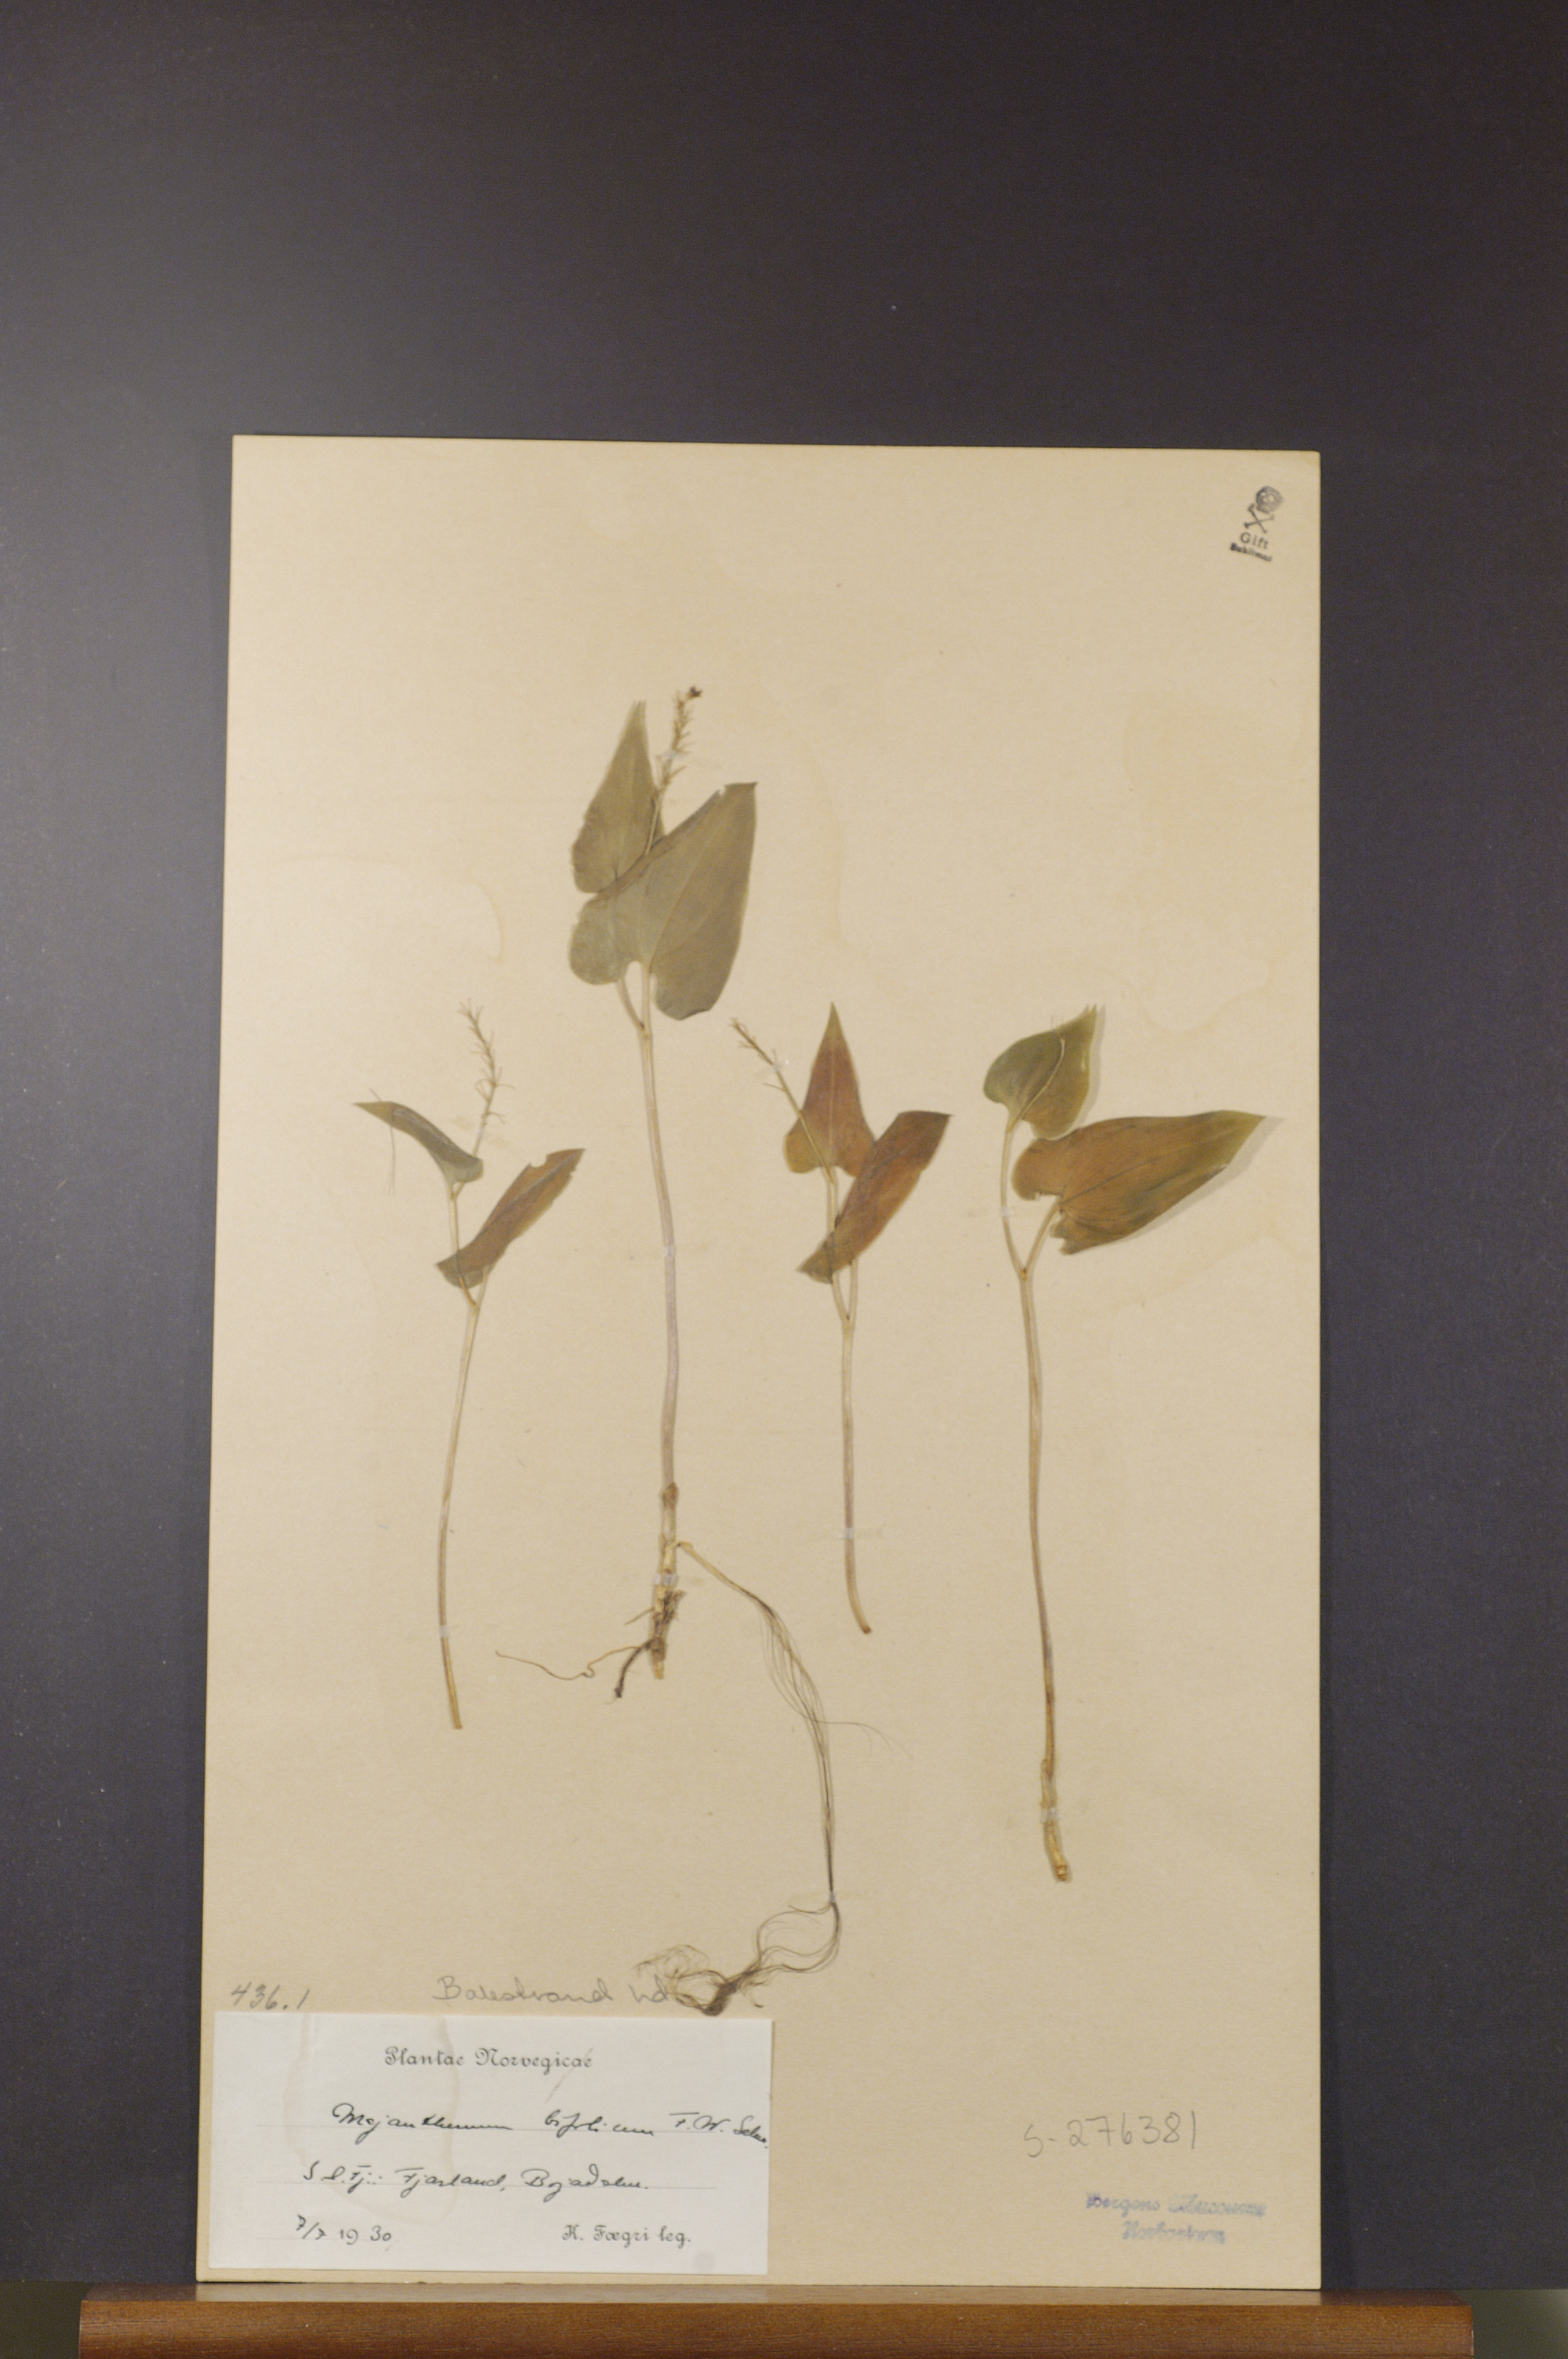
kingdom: Plantae
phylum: Tracheophyta
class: Liliopsida
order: Asparagales
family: Asparagaceae
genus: Maianthemum
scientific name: Maianthemum bifolium
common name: May lily
